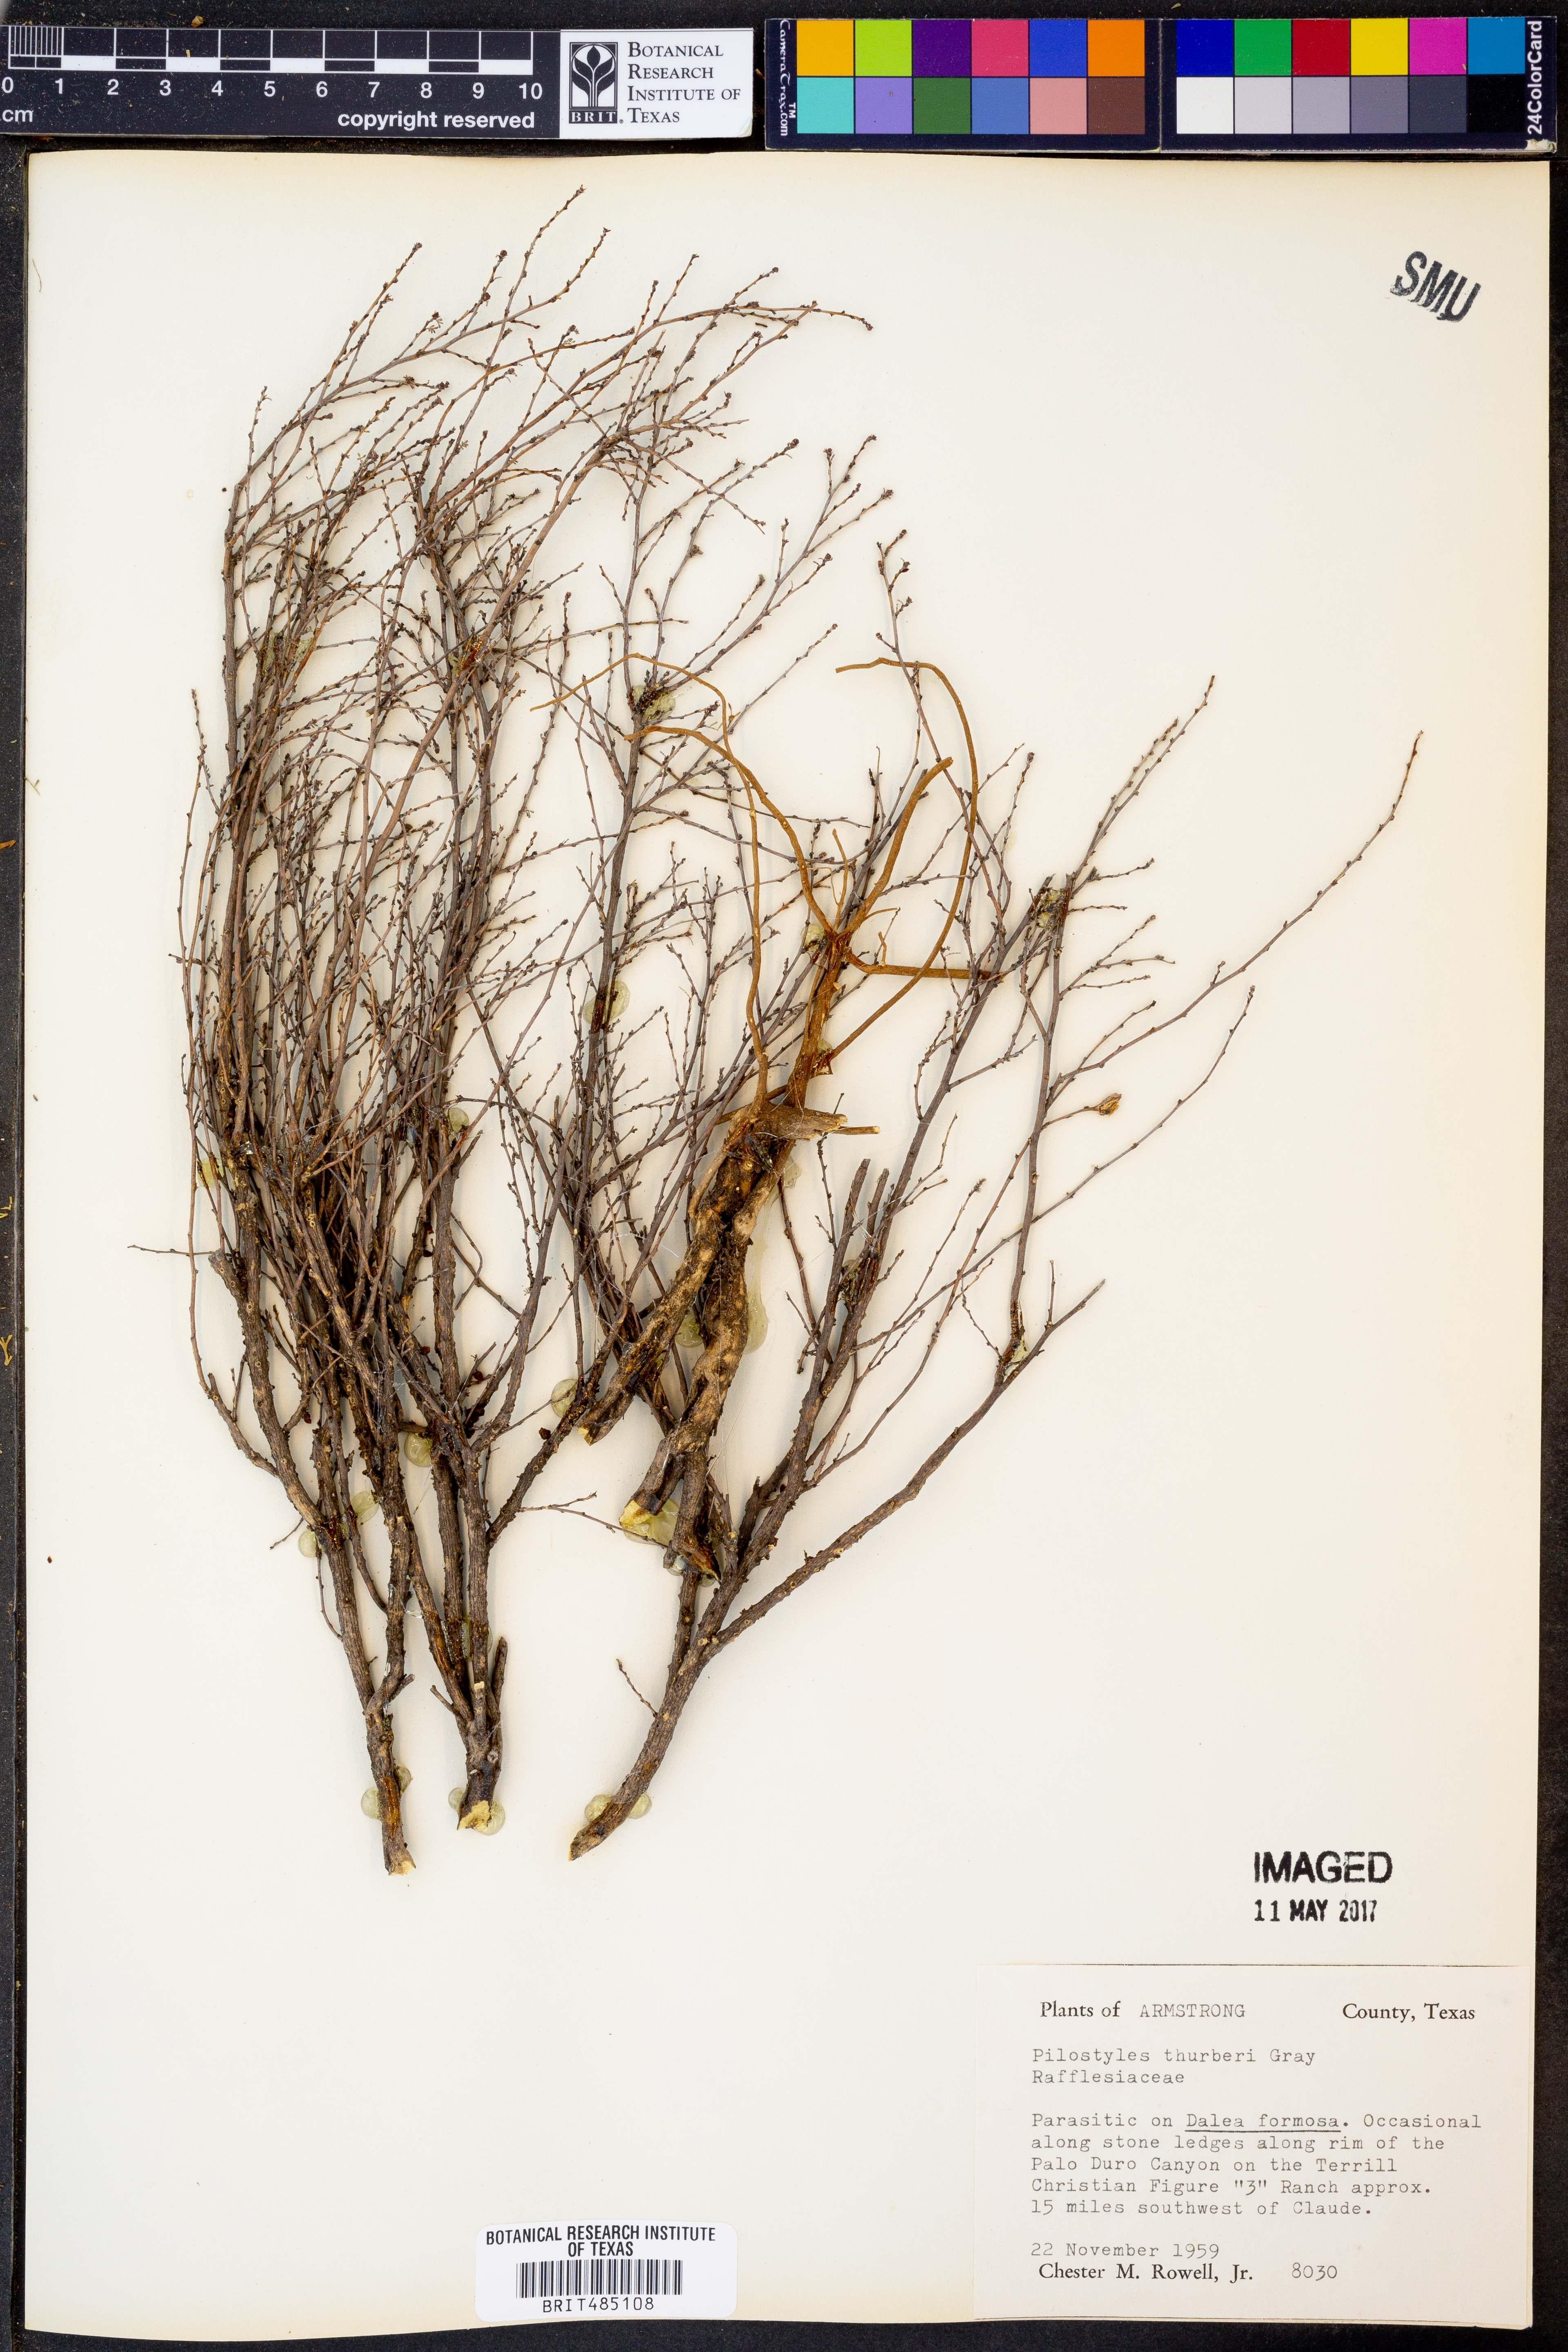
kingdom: Plantae
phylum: Tracheophyta
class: Magnoliopsida
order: Cucurbitales
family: Apodanthaceae
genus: Pilostyles
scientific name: Pilostyles thurberi
